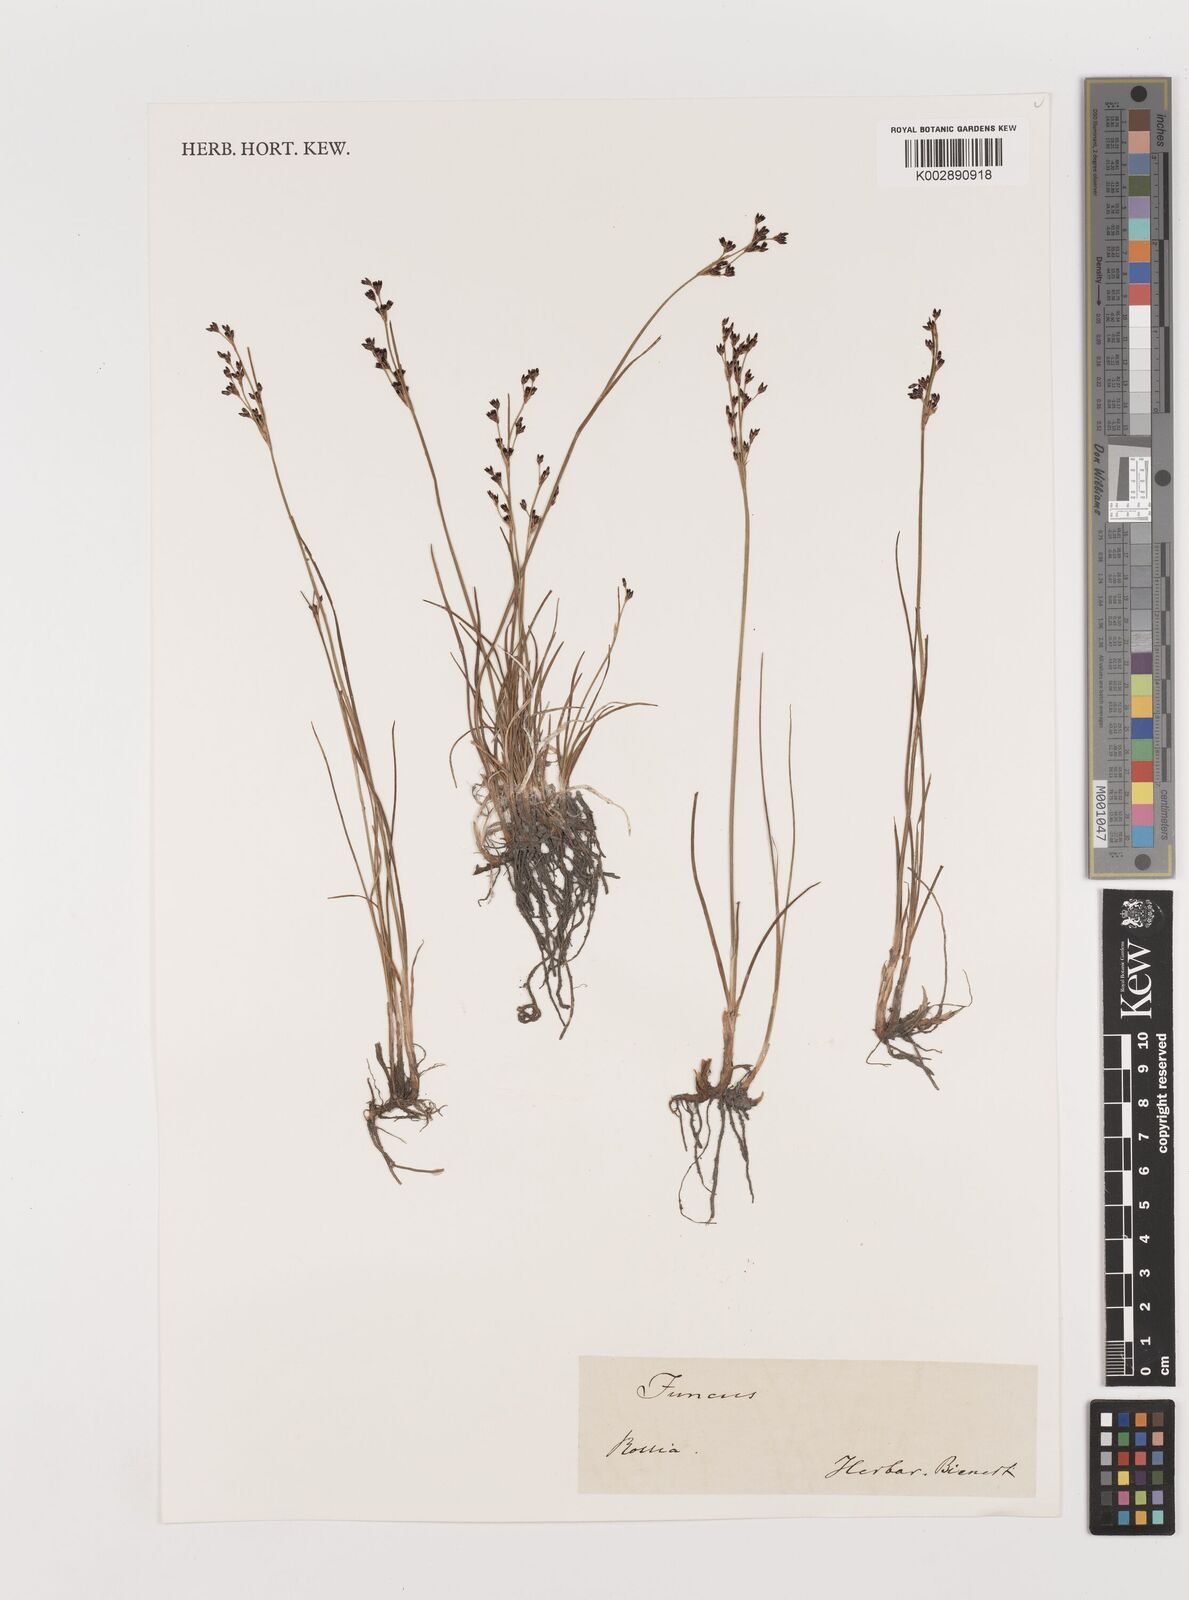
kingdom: Plantae
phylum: Tracheophyta
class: Liliopsida
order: Poales
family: Juncaceae
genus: Juncus
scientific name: Juncus
